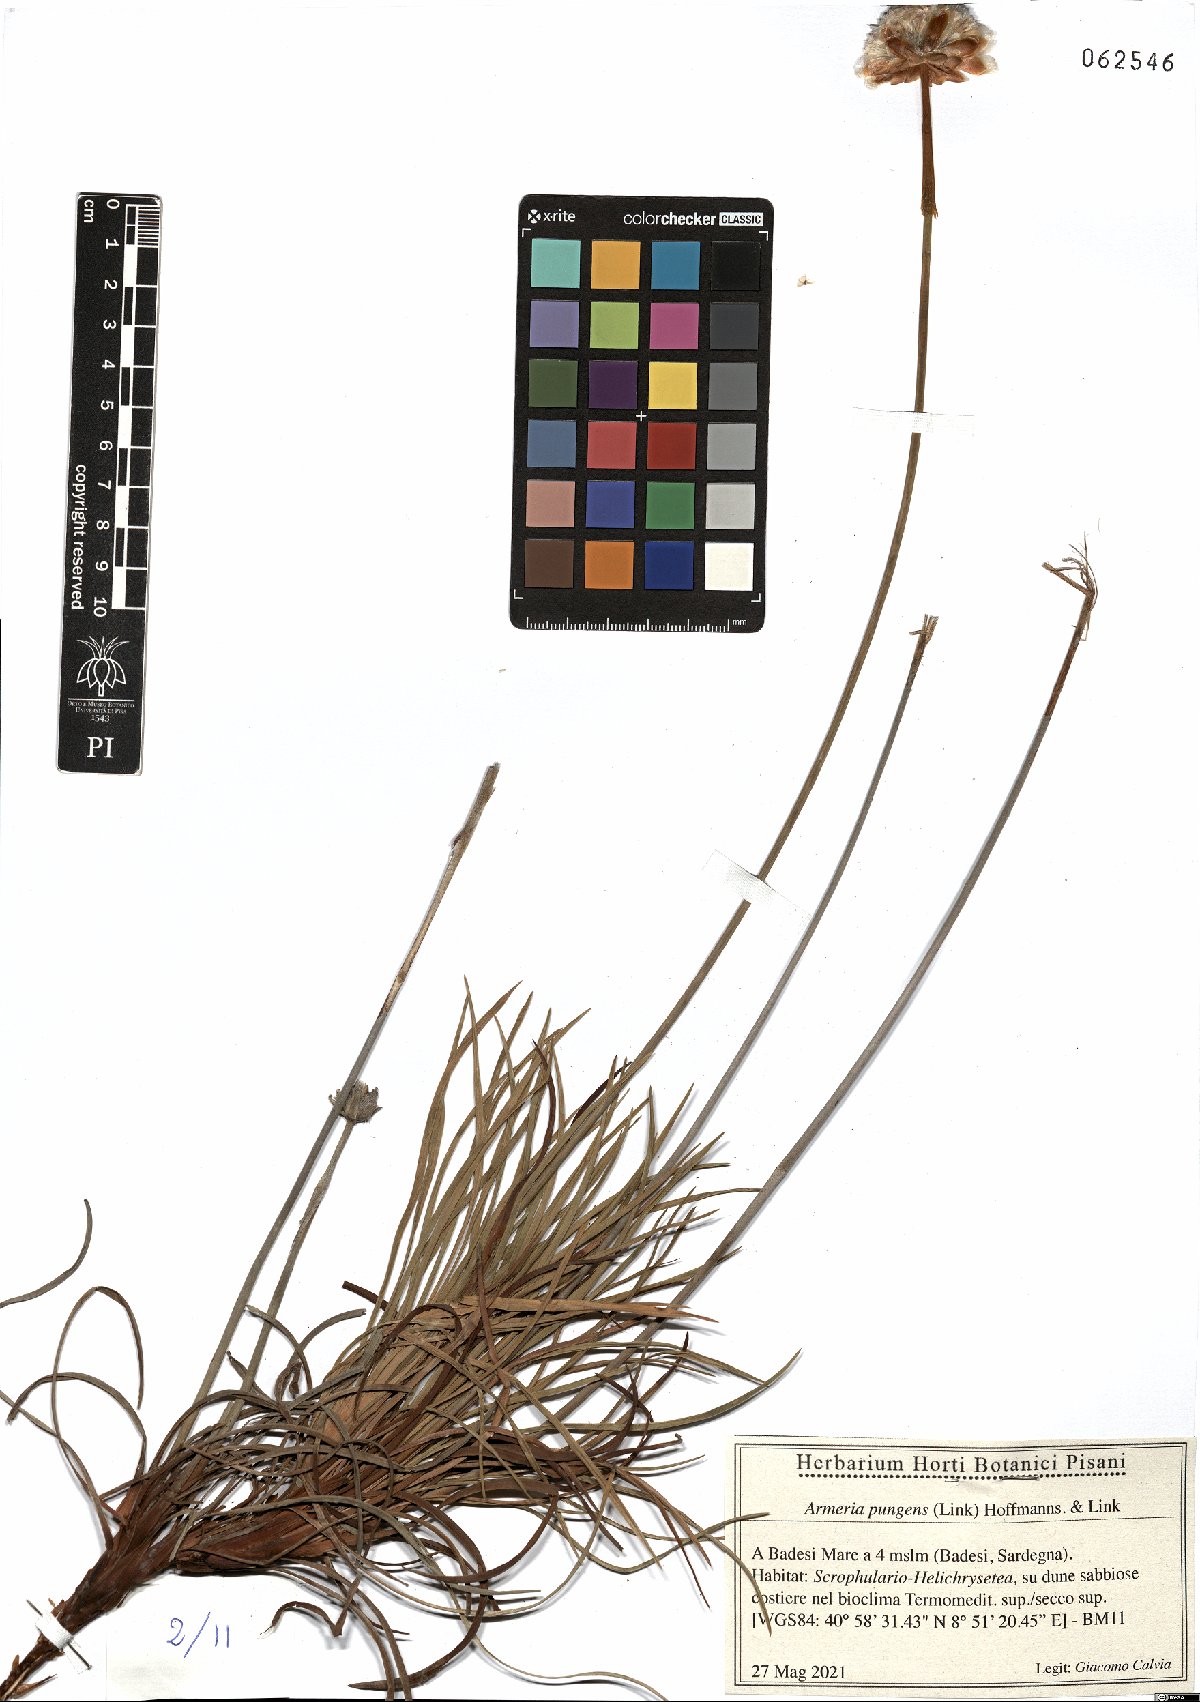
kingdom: Plantae
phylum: Tracheophyta
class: Magnoliopsida
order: Caryophyllales
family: Plumbaginaceae
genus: Armeria
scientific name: Armeria pungens
